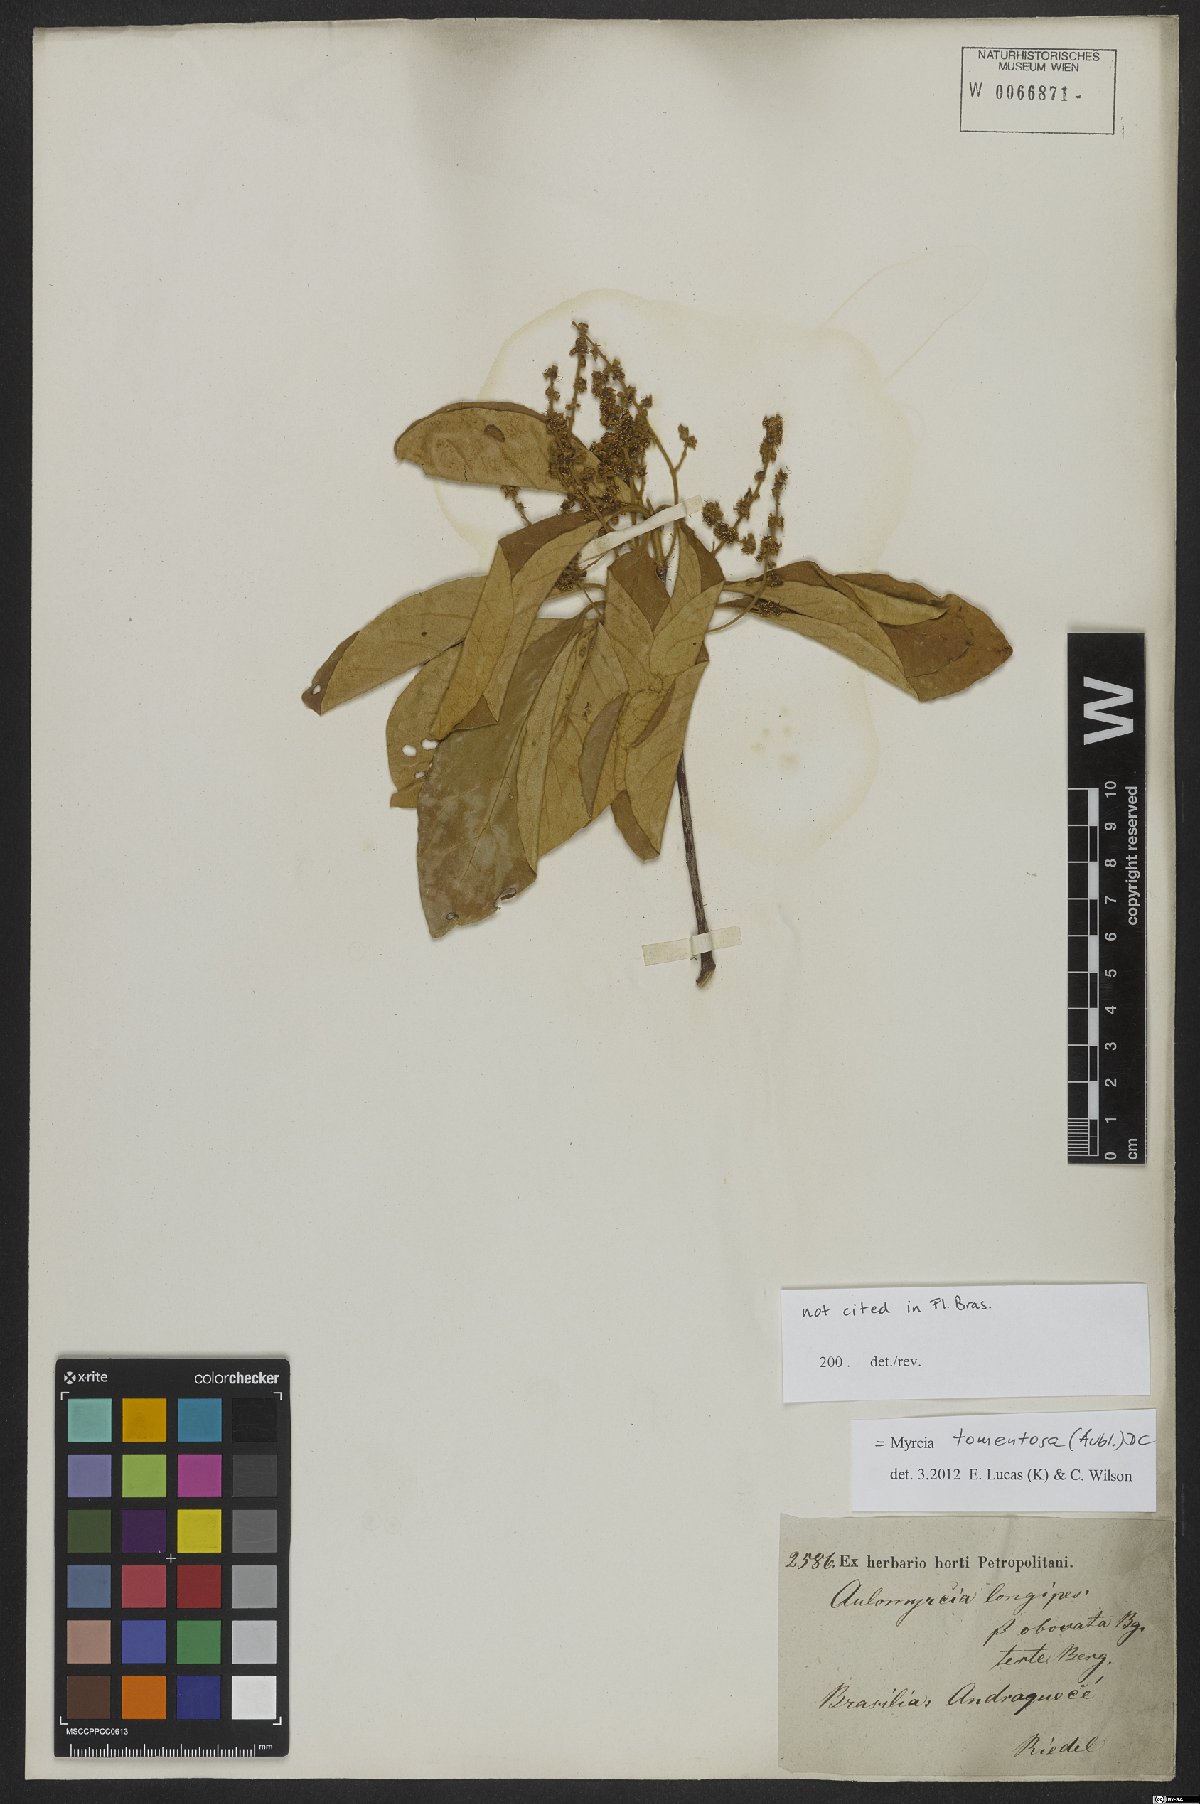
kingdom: Plantae
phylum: Tracheophyta
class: Magnoliopsida
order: Myrtales
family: Myrtaceae
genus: Myrcia
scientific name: Myrcia tomentosa
